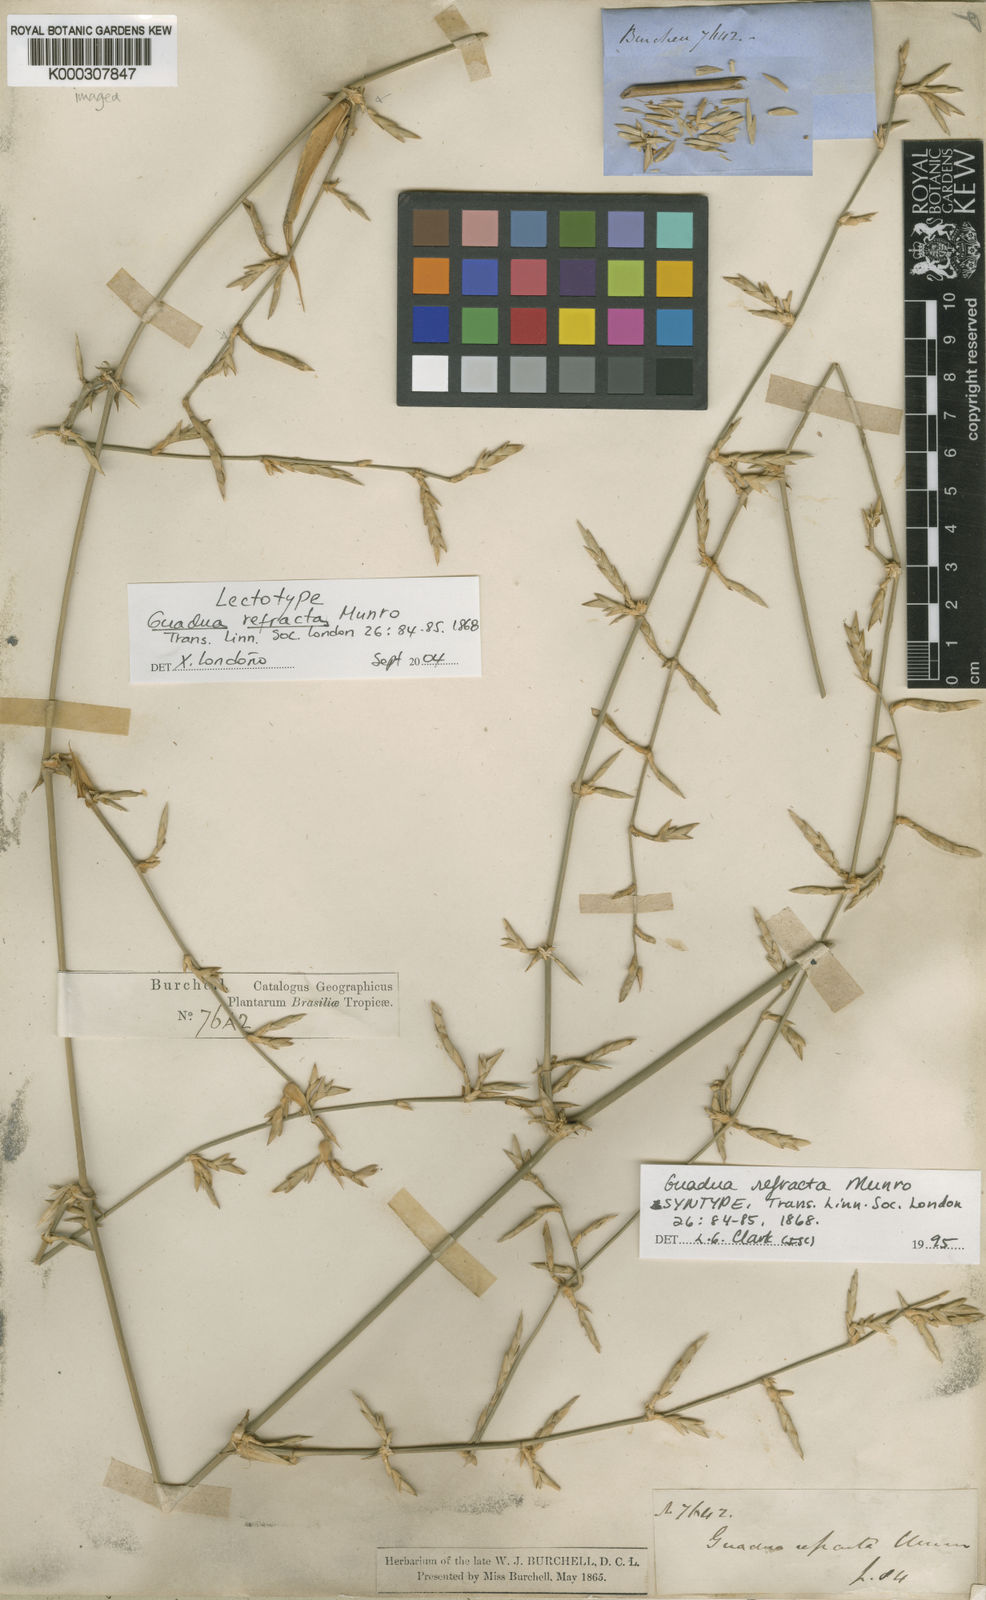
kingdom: Plantae
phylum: Tracheophyta
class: Liliopsida
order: Poales
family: Poaceae
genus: Guadua
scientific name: Guadua refracta
